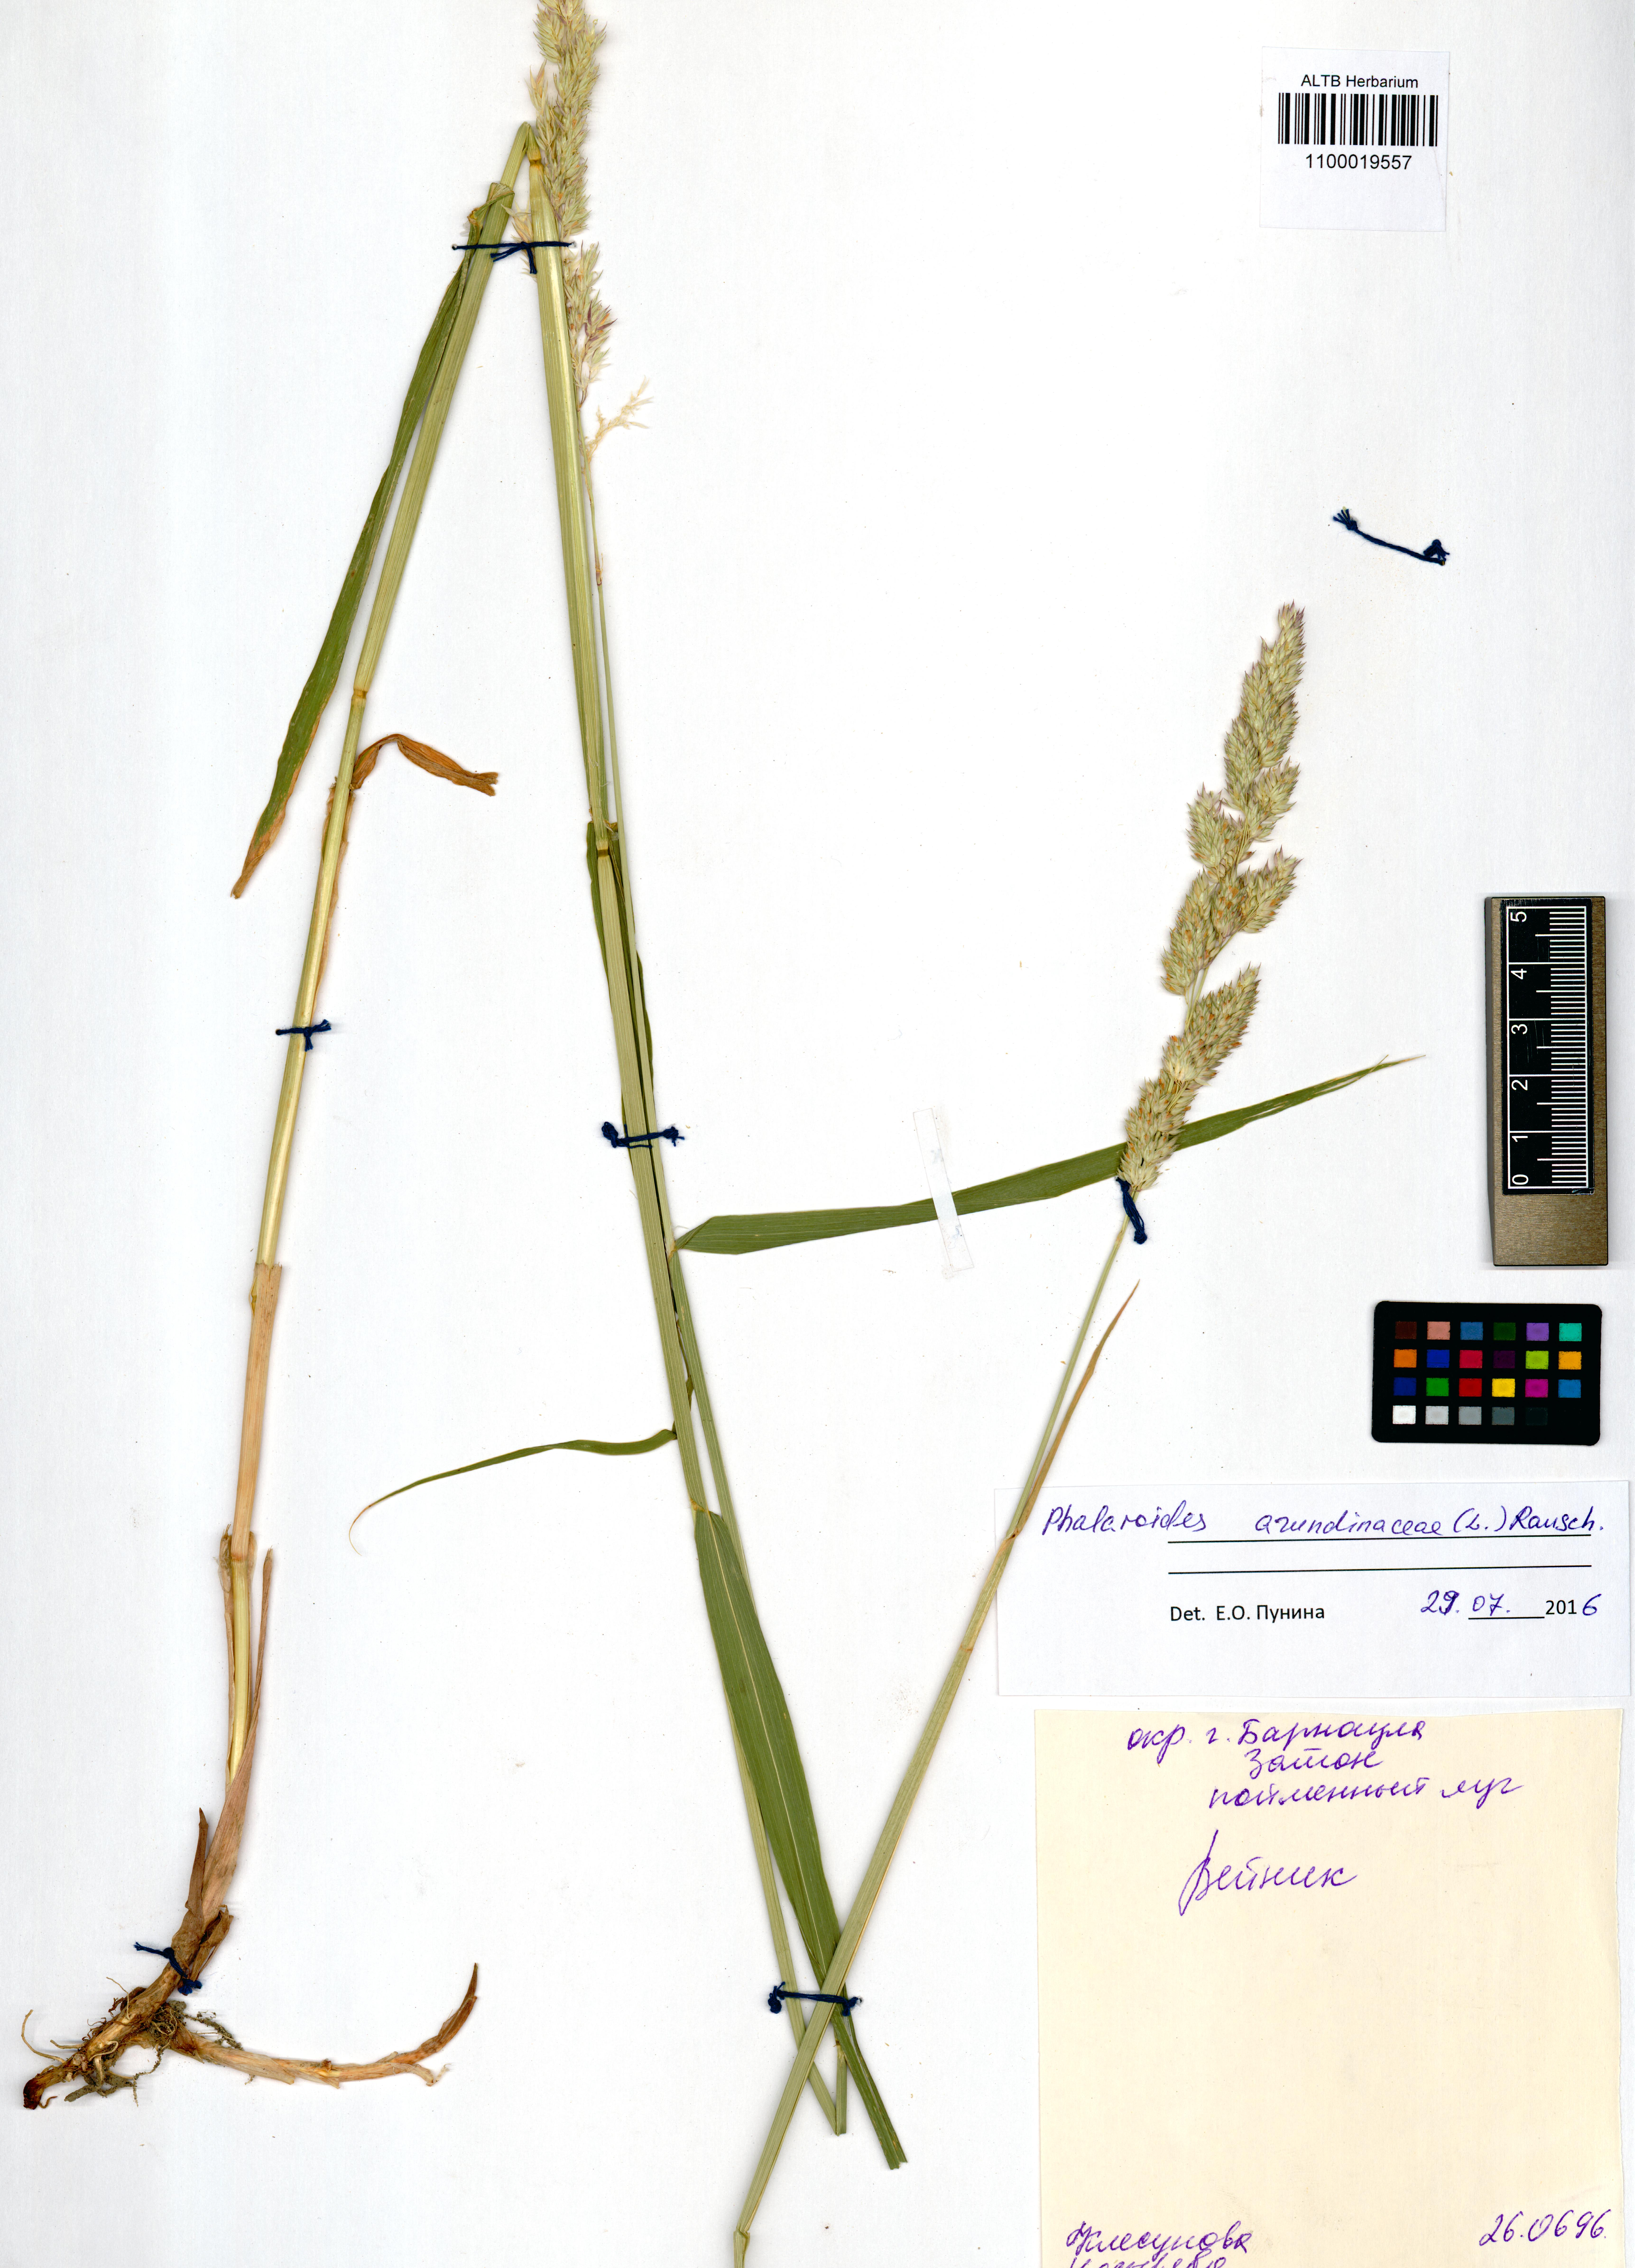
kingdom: Plantae
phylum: Tracheophyta
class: Liliopsida
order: Poales
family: Poaceae
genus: Phalaris
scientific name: Phalaris arundinacea
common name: Reed canary-grass
